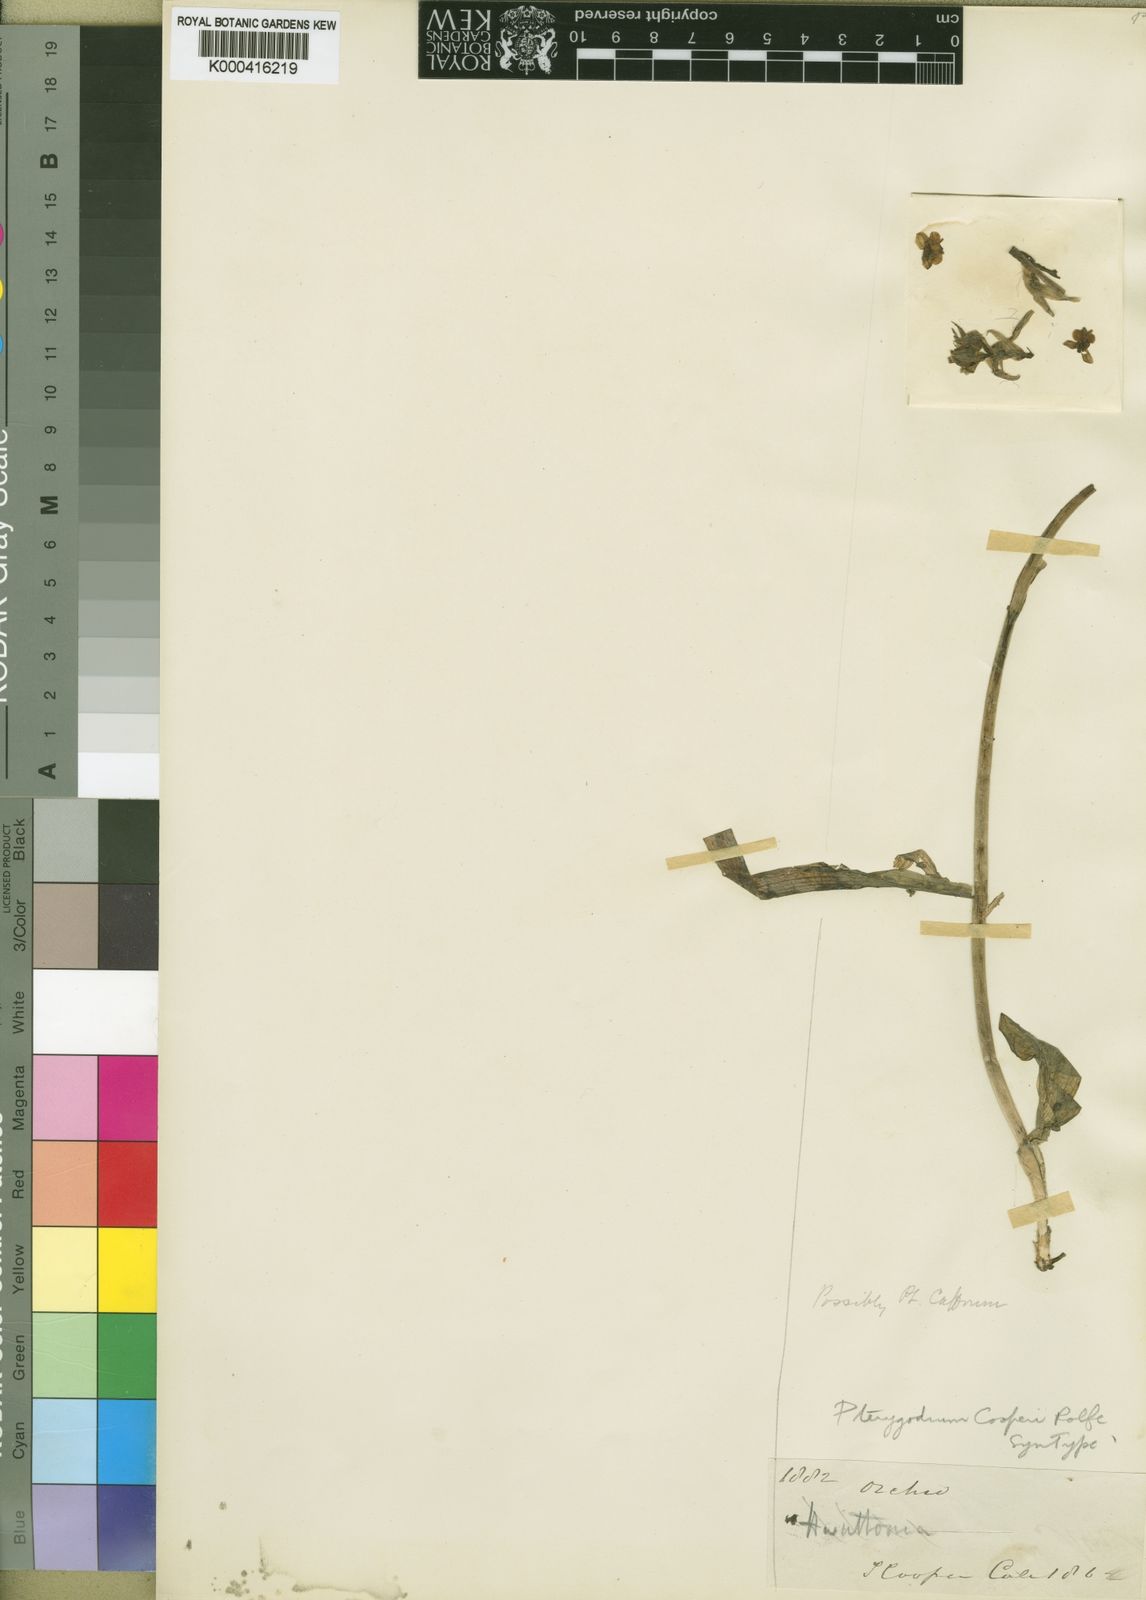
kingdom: Plantae
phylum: Tracheophyta
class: Liliopsida
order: Asparagales
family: Orchidaceae
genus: Pterygodium
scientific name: Pterygodium cooperi
